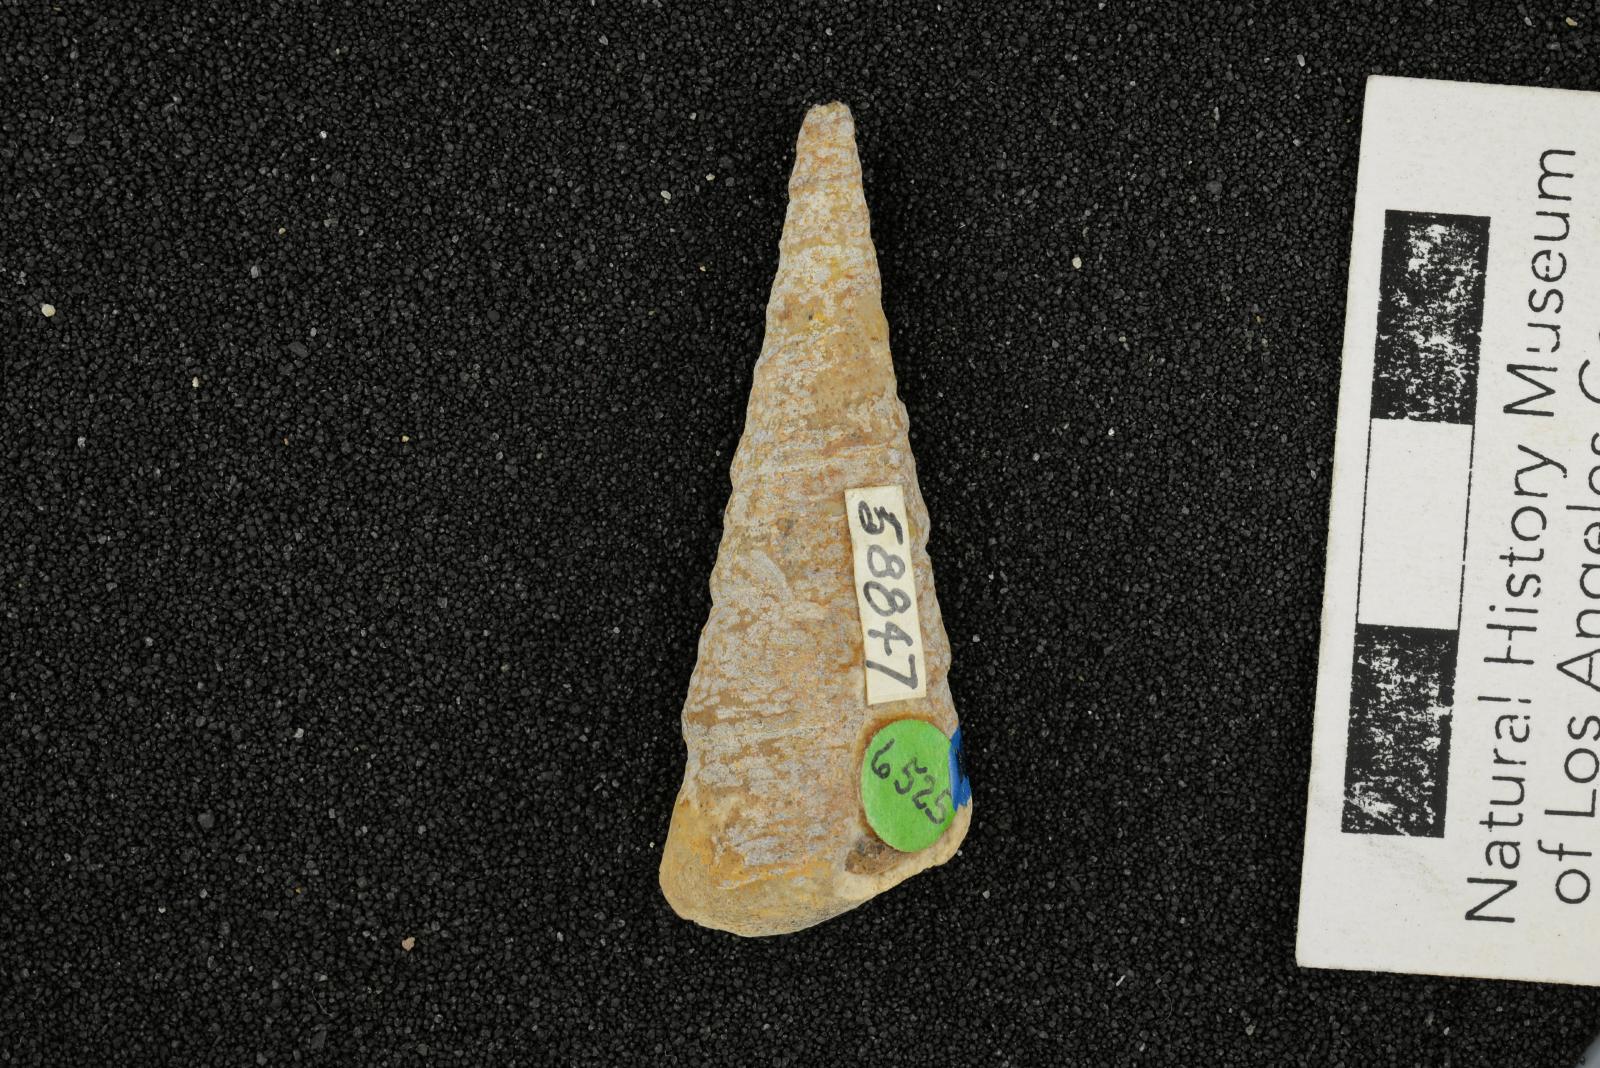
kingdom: Animalia
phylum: Mollusca
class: Gastropoda
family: Turritellidae
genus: Turritella
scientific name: Turritella peninsularis
